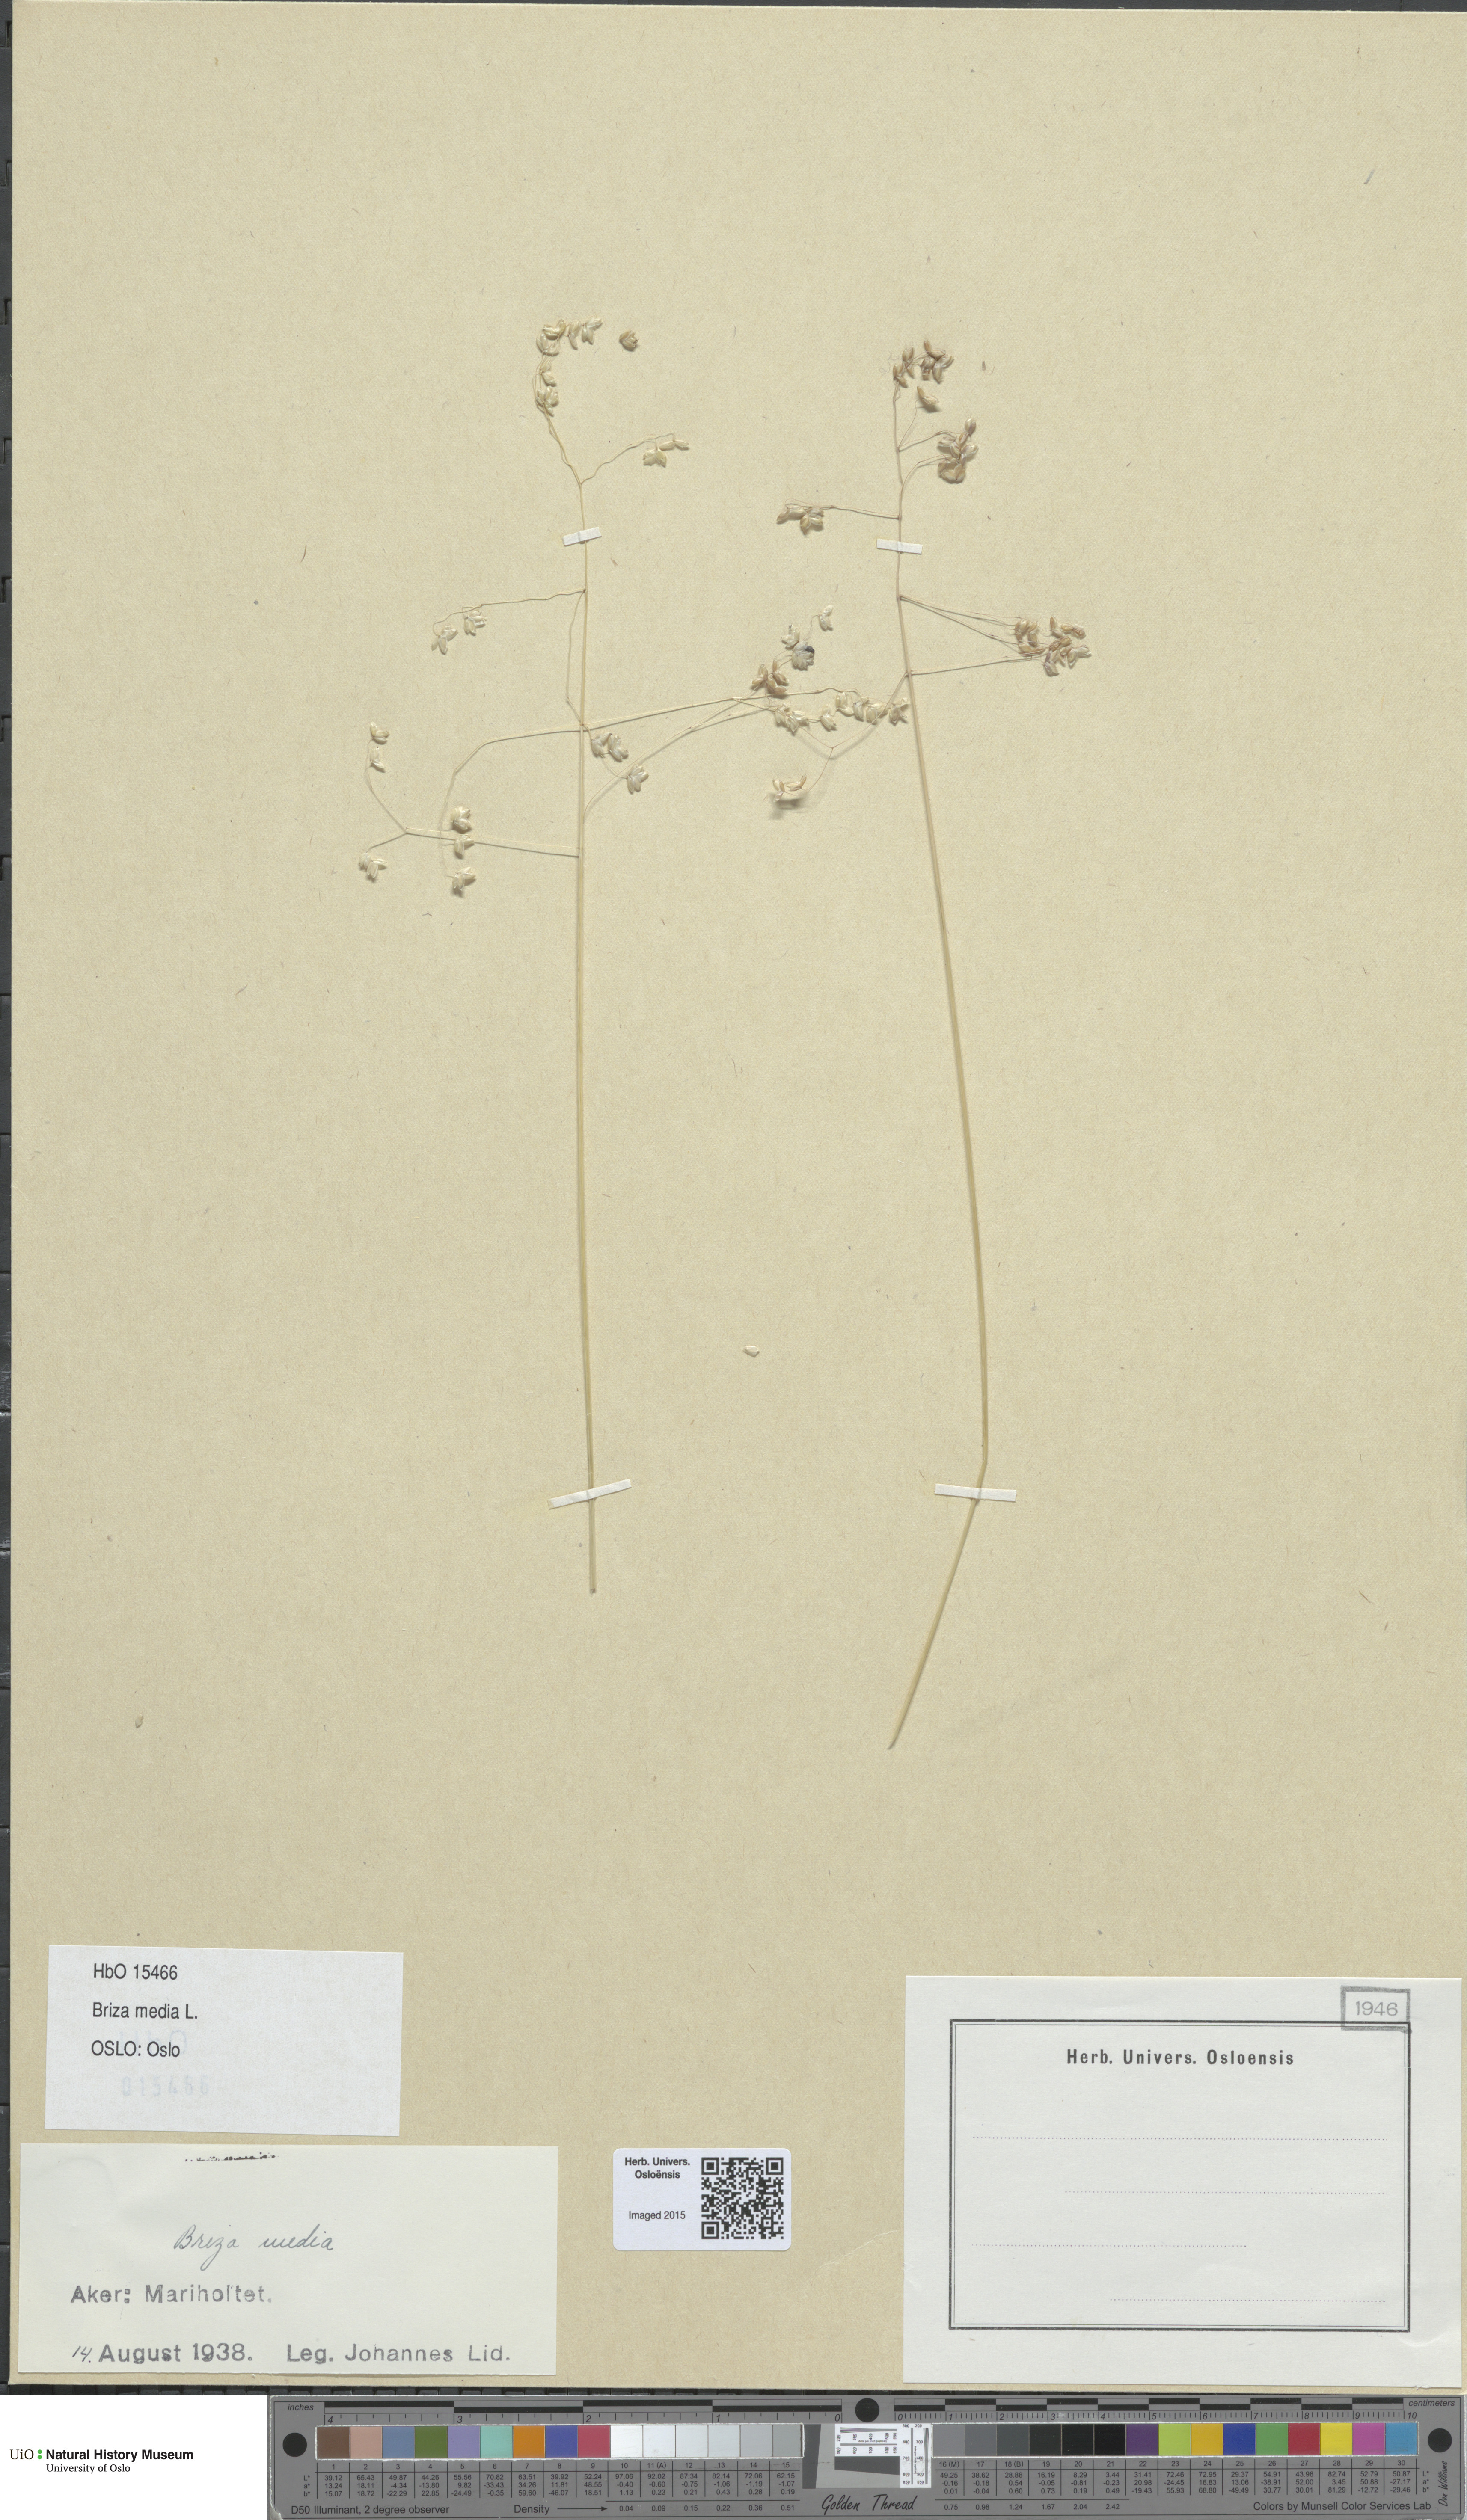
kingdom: Plantae
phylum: Tracheophyta
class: Liliopsida
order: Poales
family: Poaceae
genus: Briza
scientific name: Briza media
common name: Quaking grass
